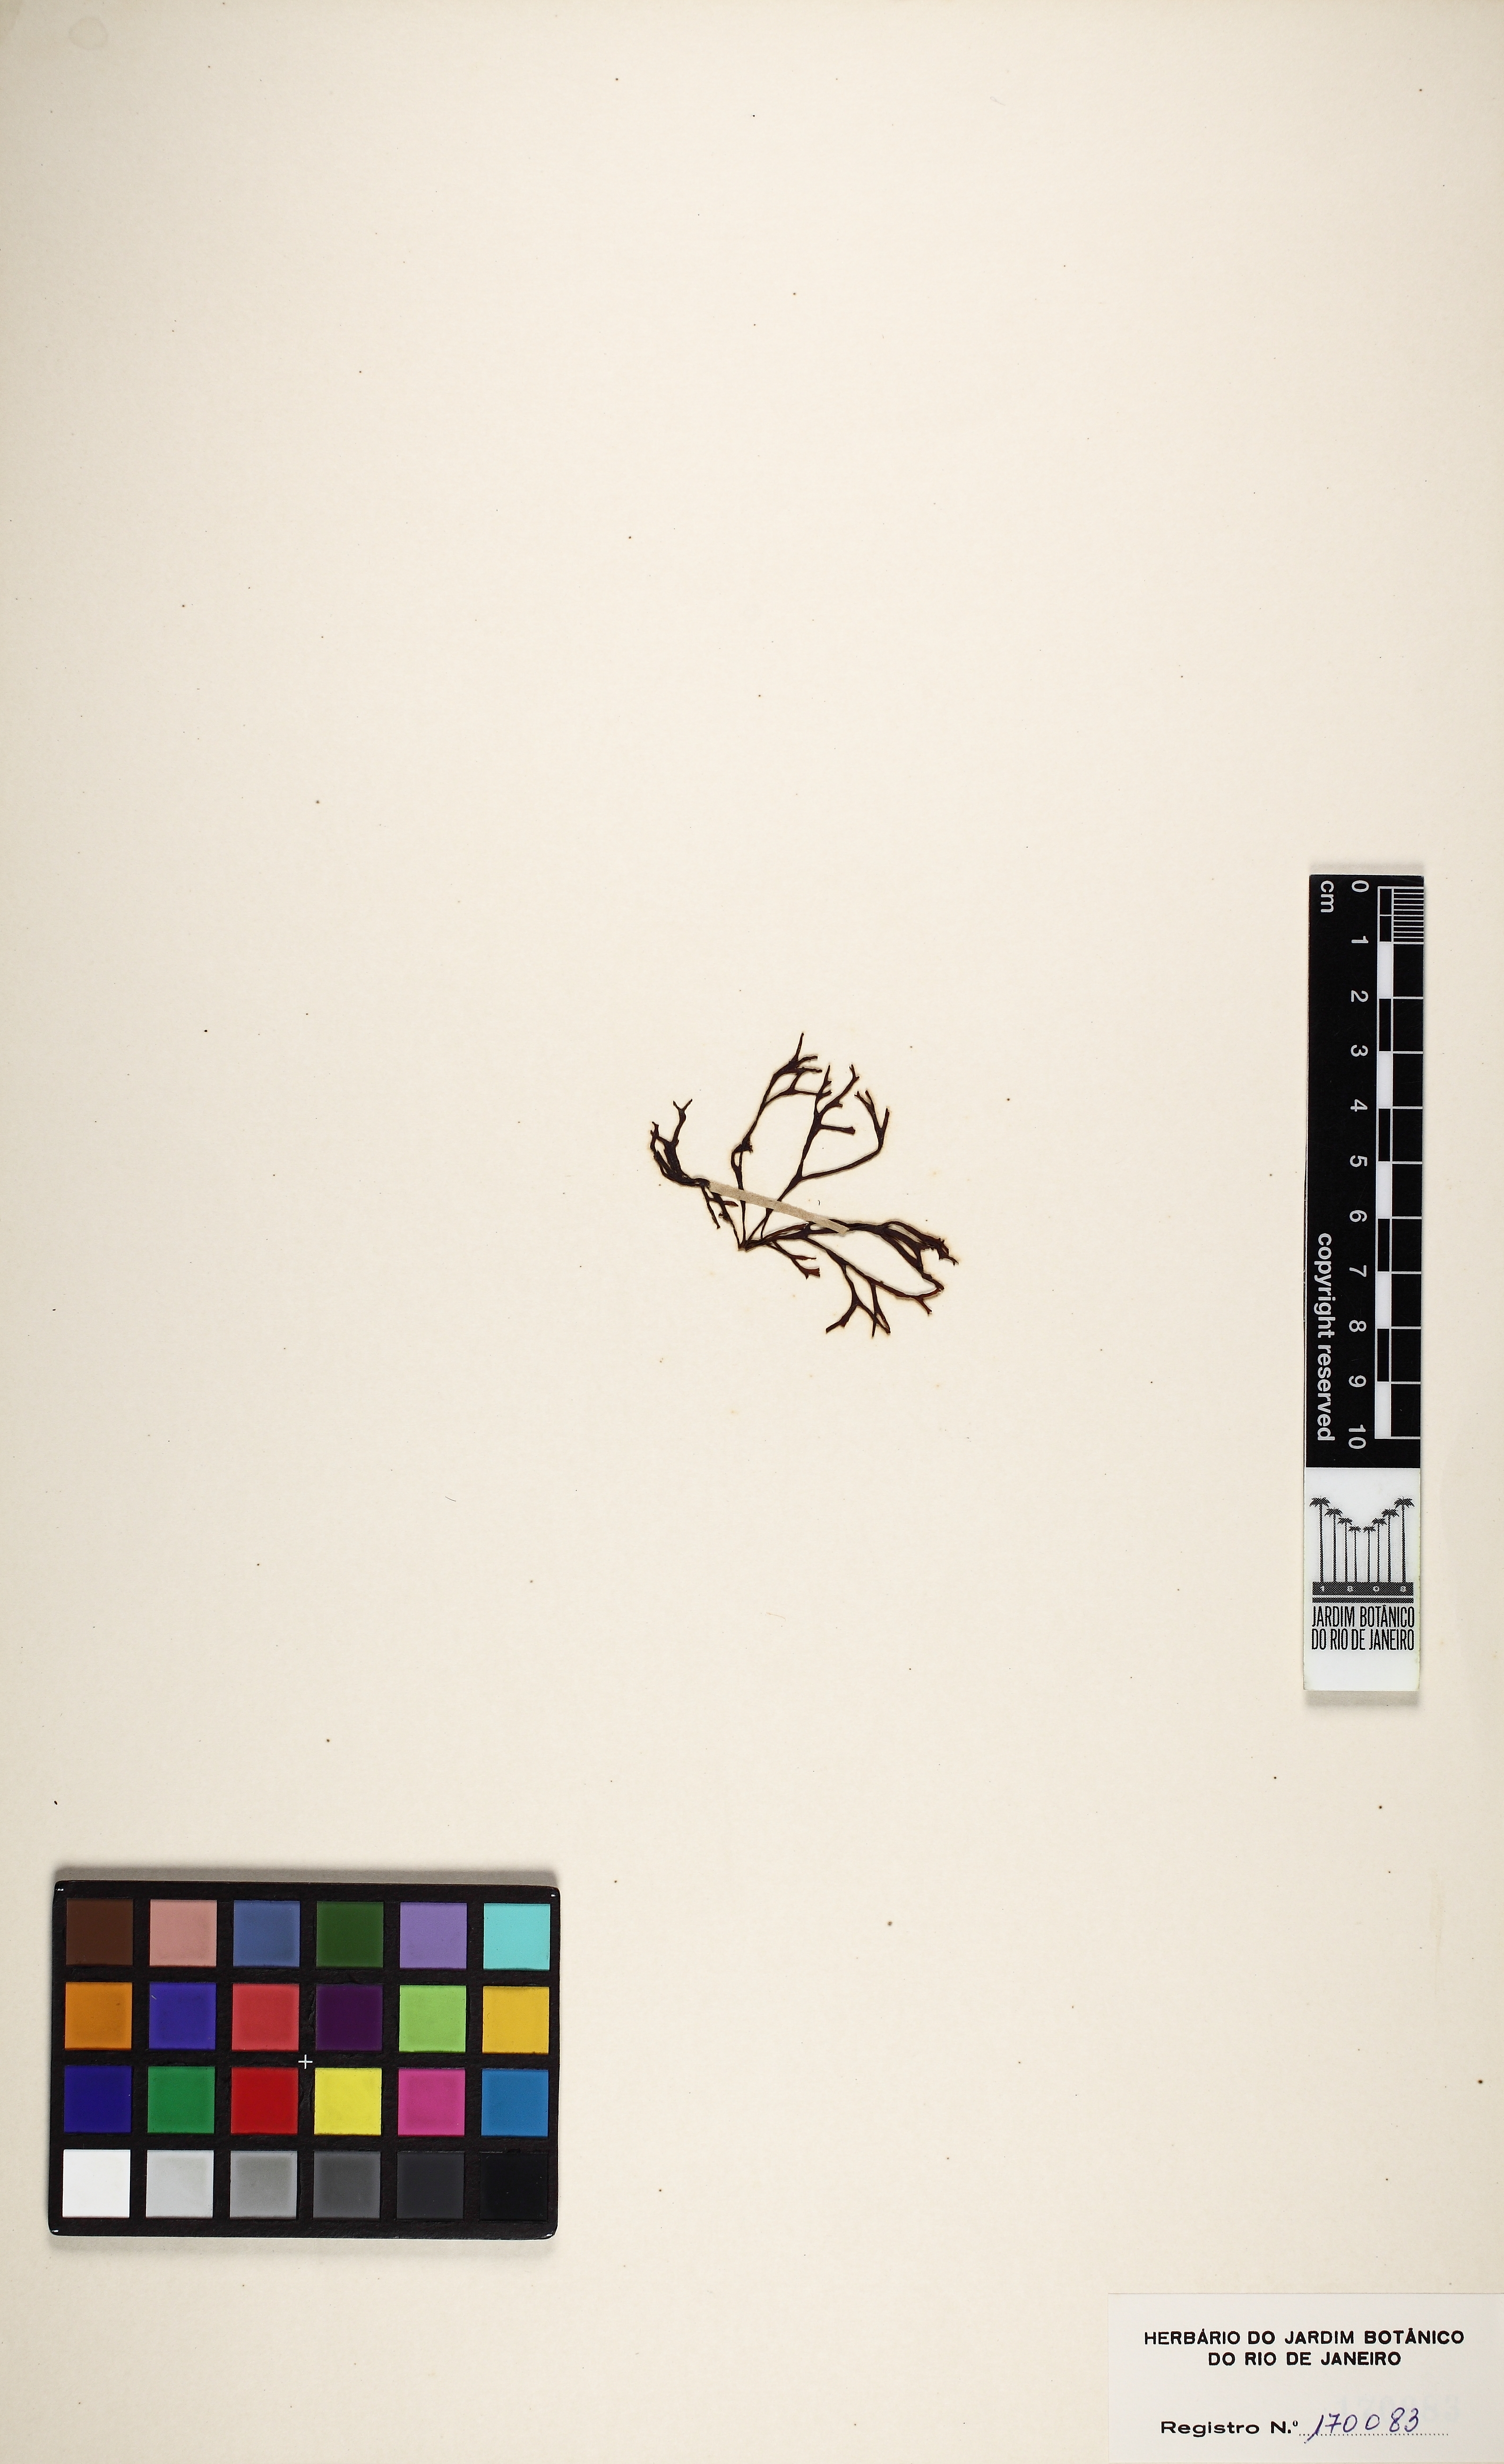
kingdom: Chromista
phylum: Ochrophyta
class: Phaeophyceae
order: Scytosiphonales
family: Scytosiphonaceae
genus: Chnoospora
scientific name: Chnoospora minima
